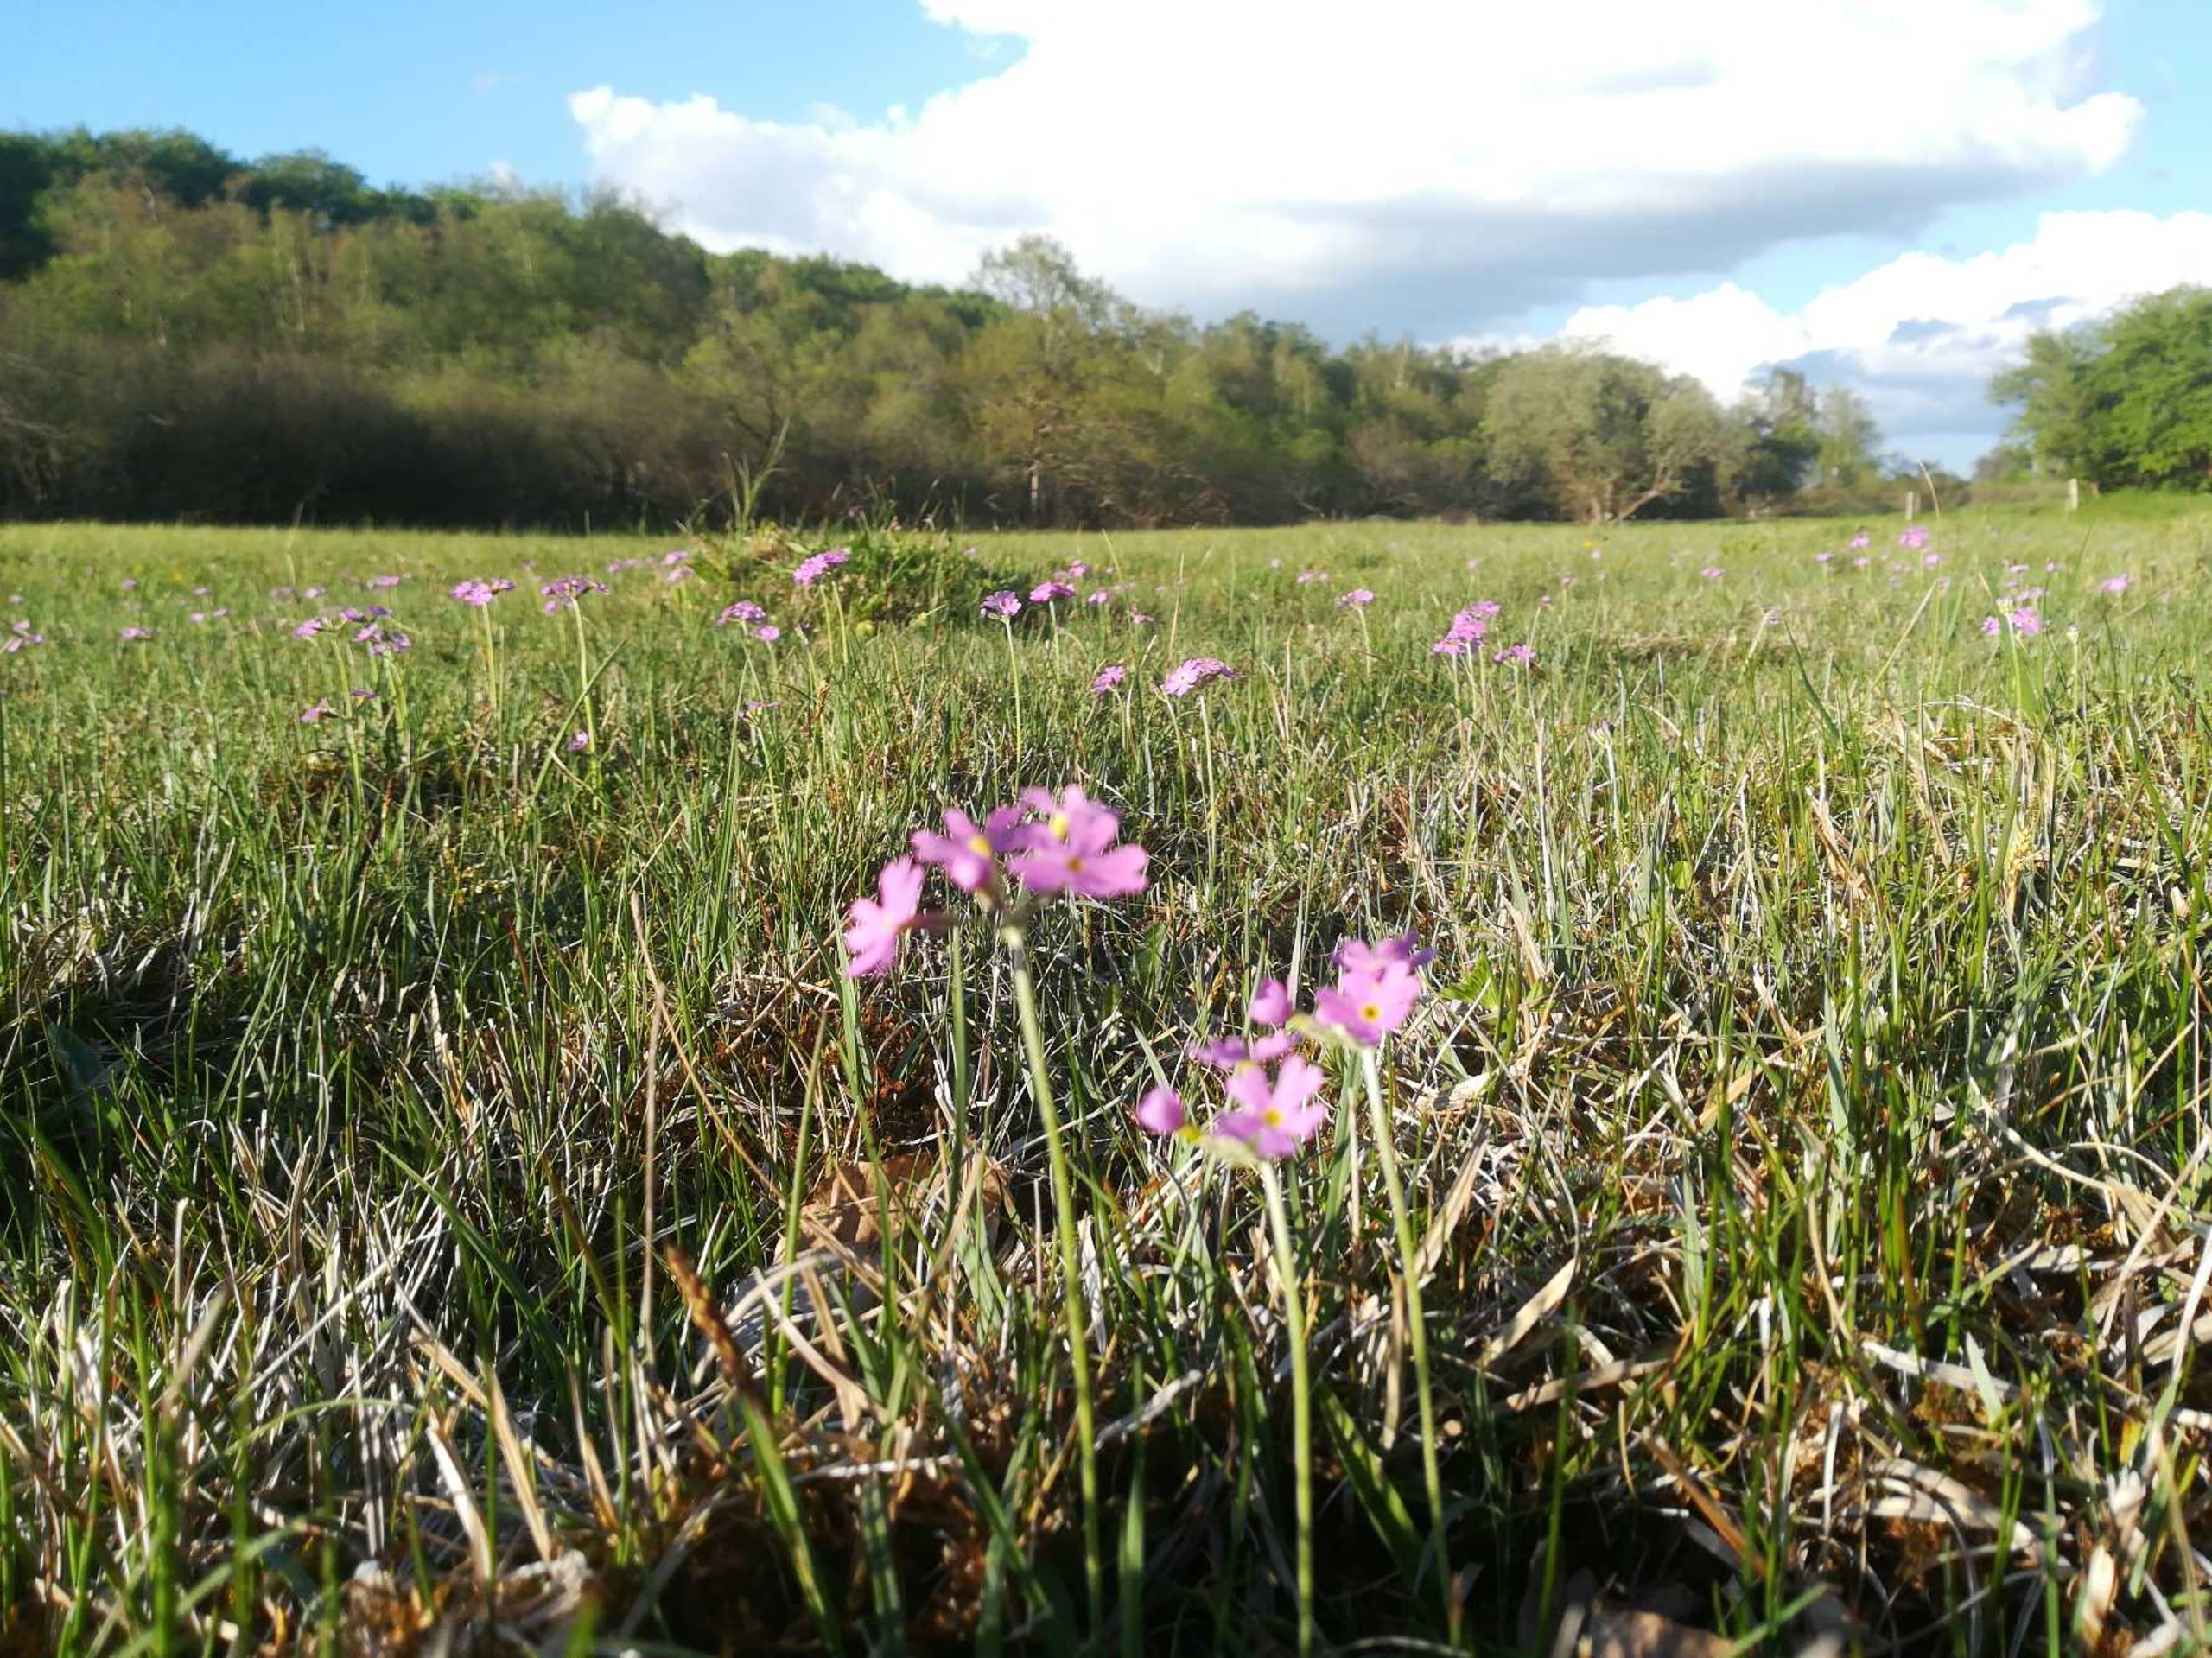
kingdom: Plantae
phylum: Tracheophyta
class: Magnoliopsida
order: Ericales
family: Primulaceae
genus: Primula
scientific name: Primula farinosa
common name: Melet kodriver
